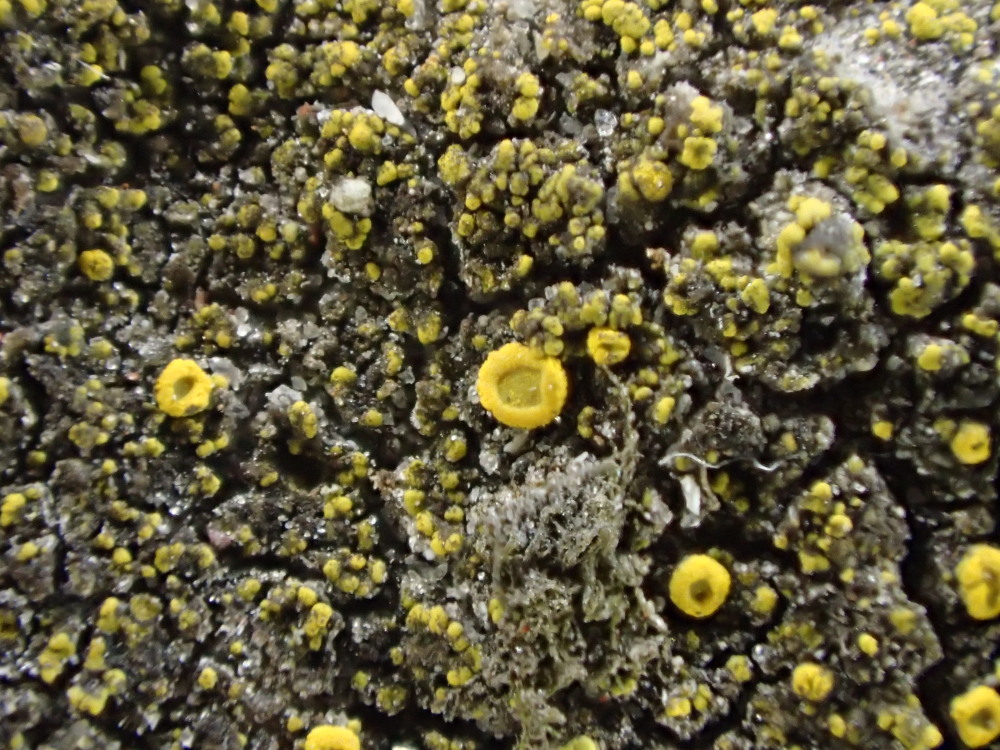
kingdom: Fungi
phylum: Ascomycota
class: Candelariomycetes
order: Candelariales
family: Candelariaceae
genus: Candelariella
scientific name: Candelariella aurella
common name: liden æggeblommelav
